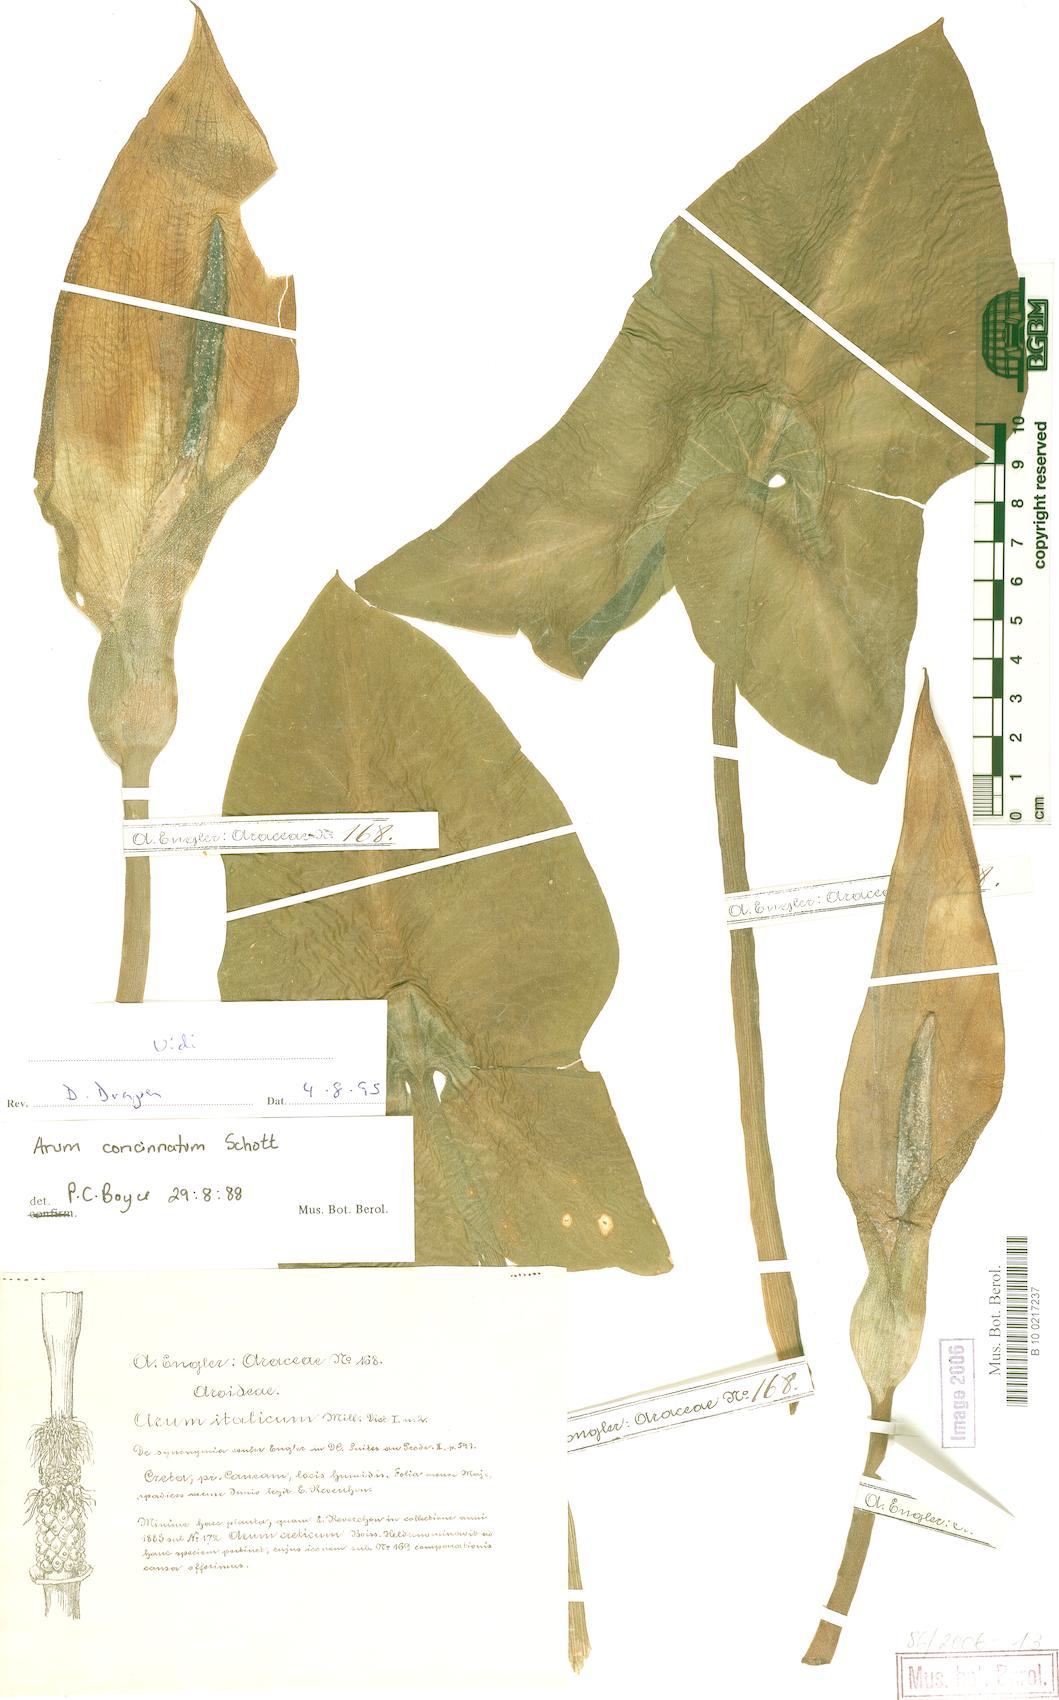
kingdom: Plantae
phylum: Tracheophyta
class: Liliopsida
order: Alismatales
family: Araceae
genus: Arum
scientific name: Arum concinnatum
